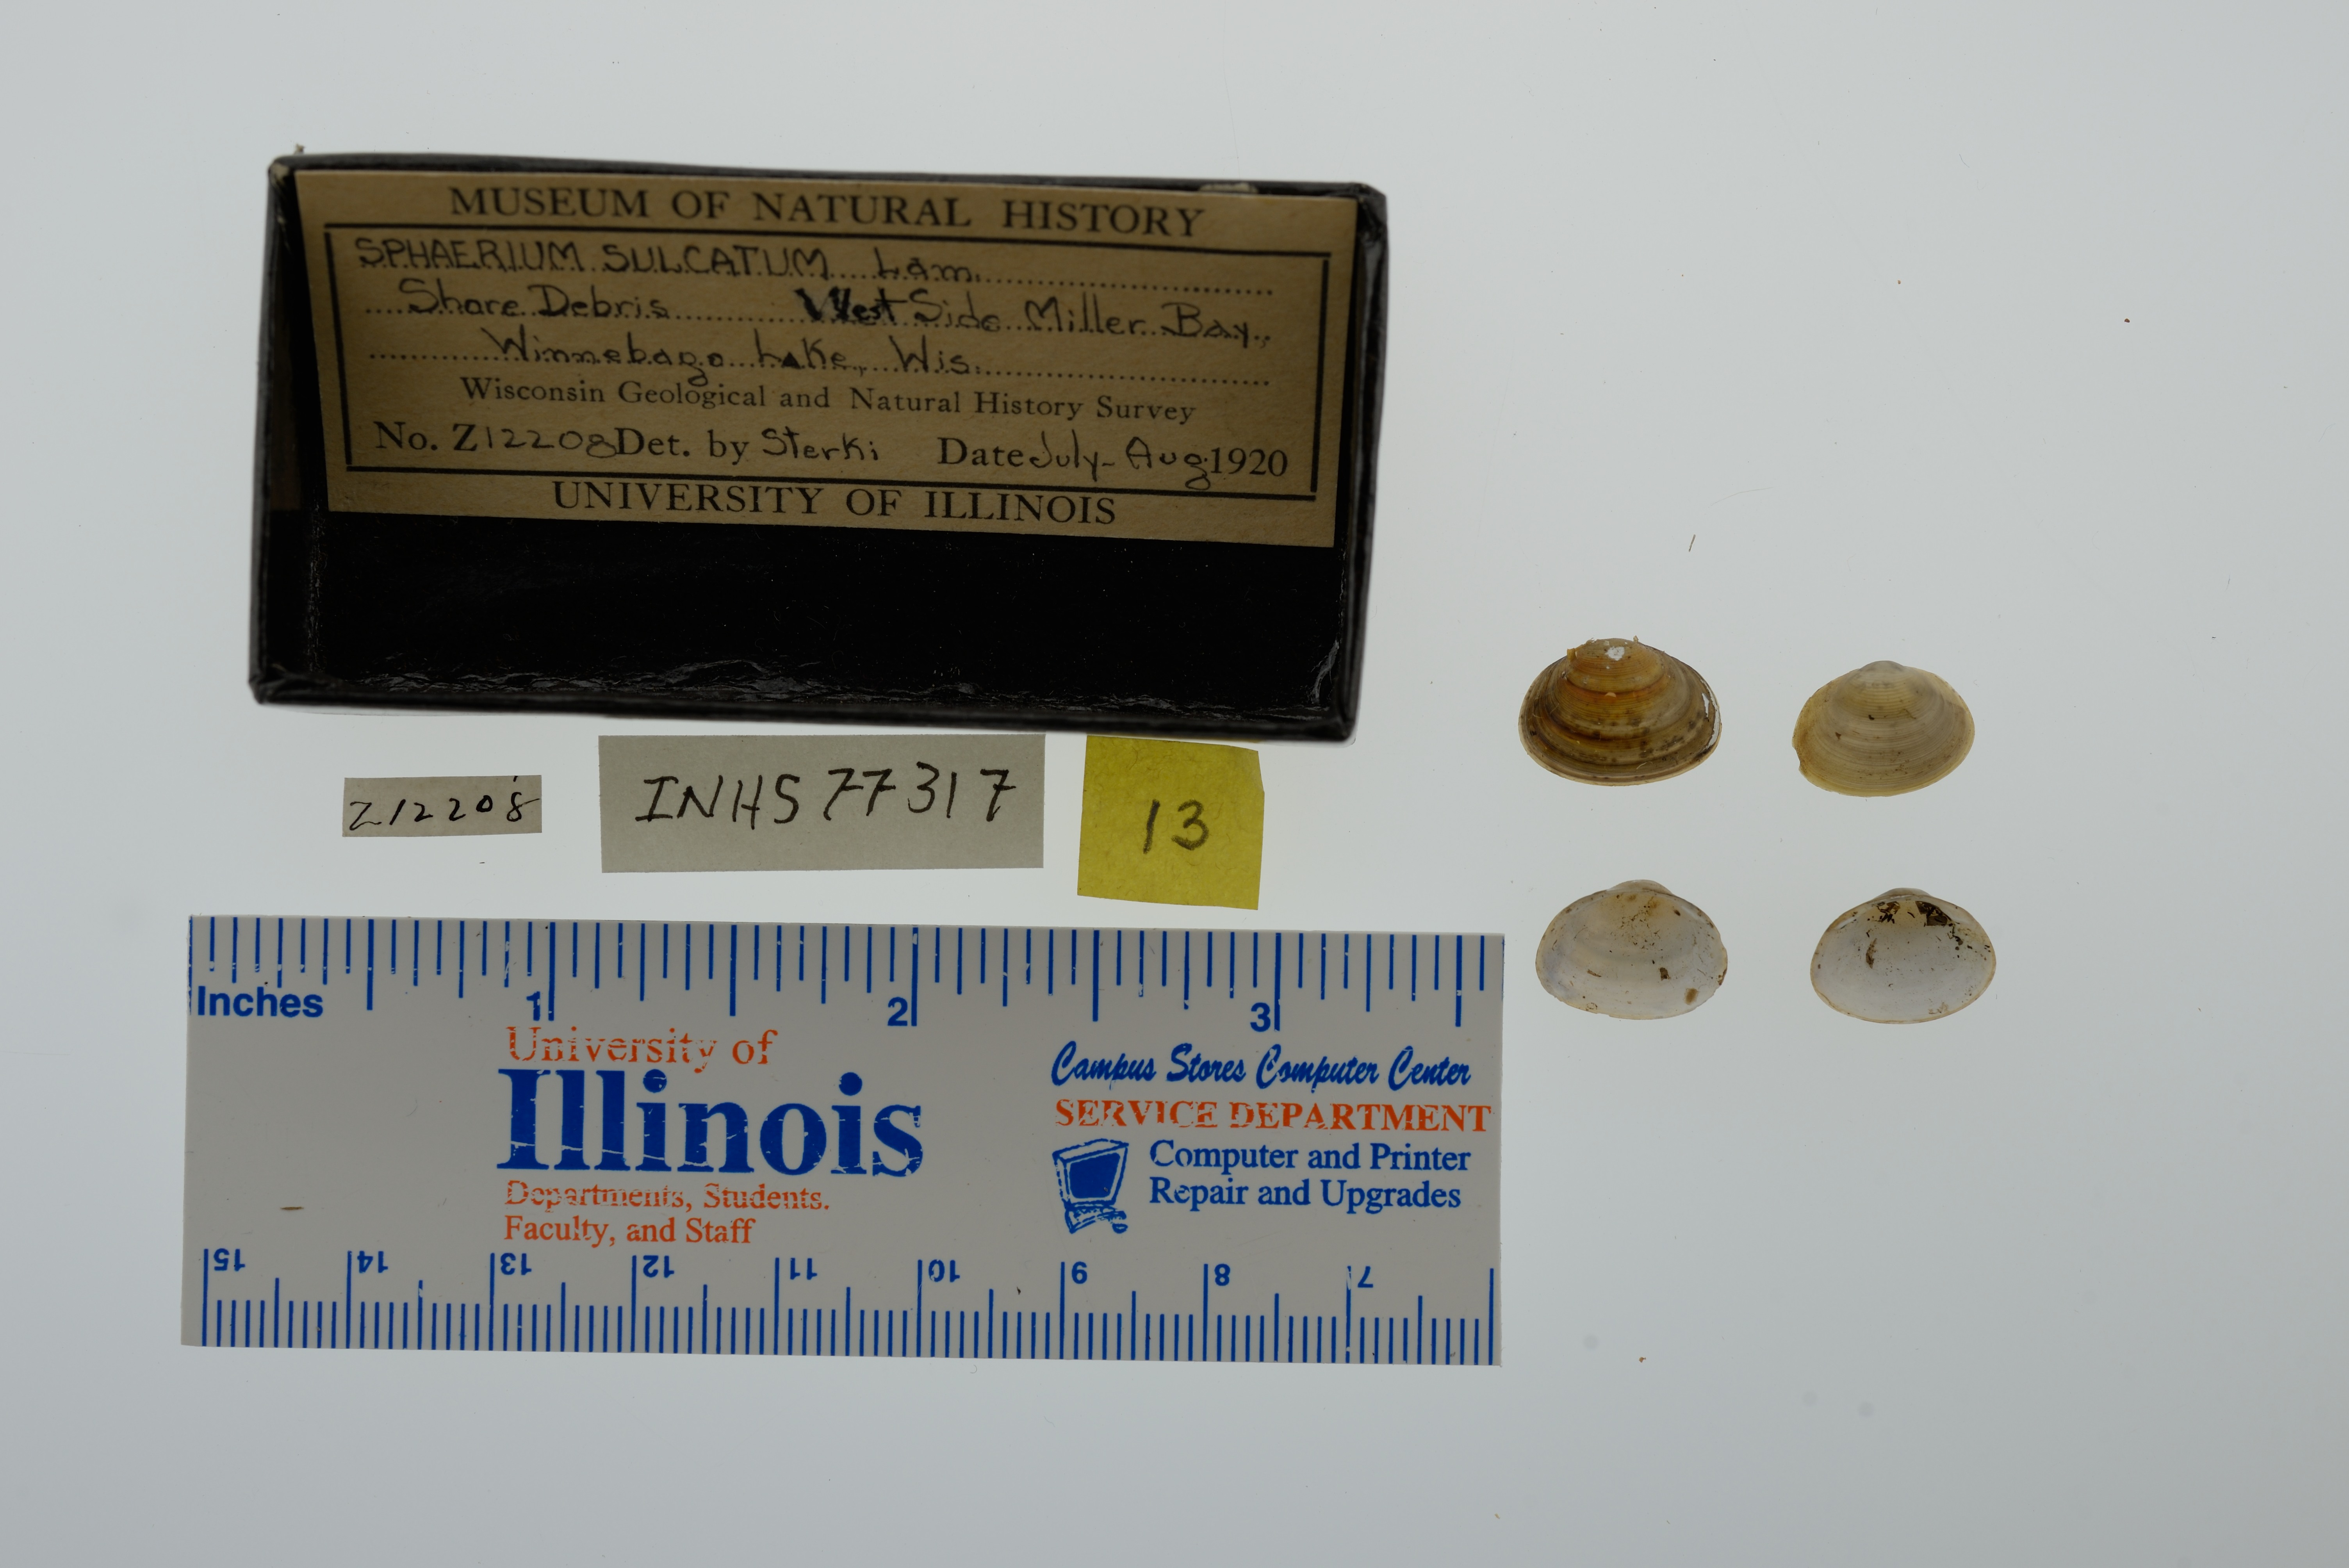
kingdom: Animalia
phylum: Mollusca
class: Bivalvia
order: Sphaeriida
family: Sphaeriidae
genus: Sphaerium
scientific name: Sphaerium simile
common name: Grooved fingernailclam
